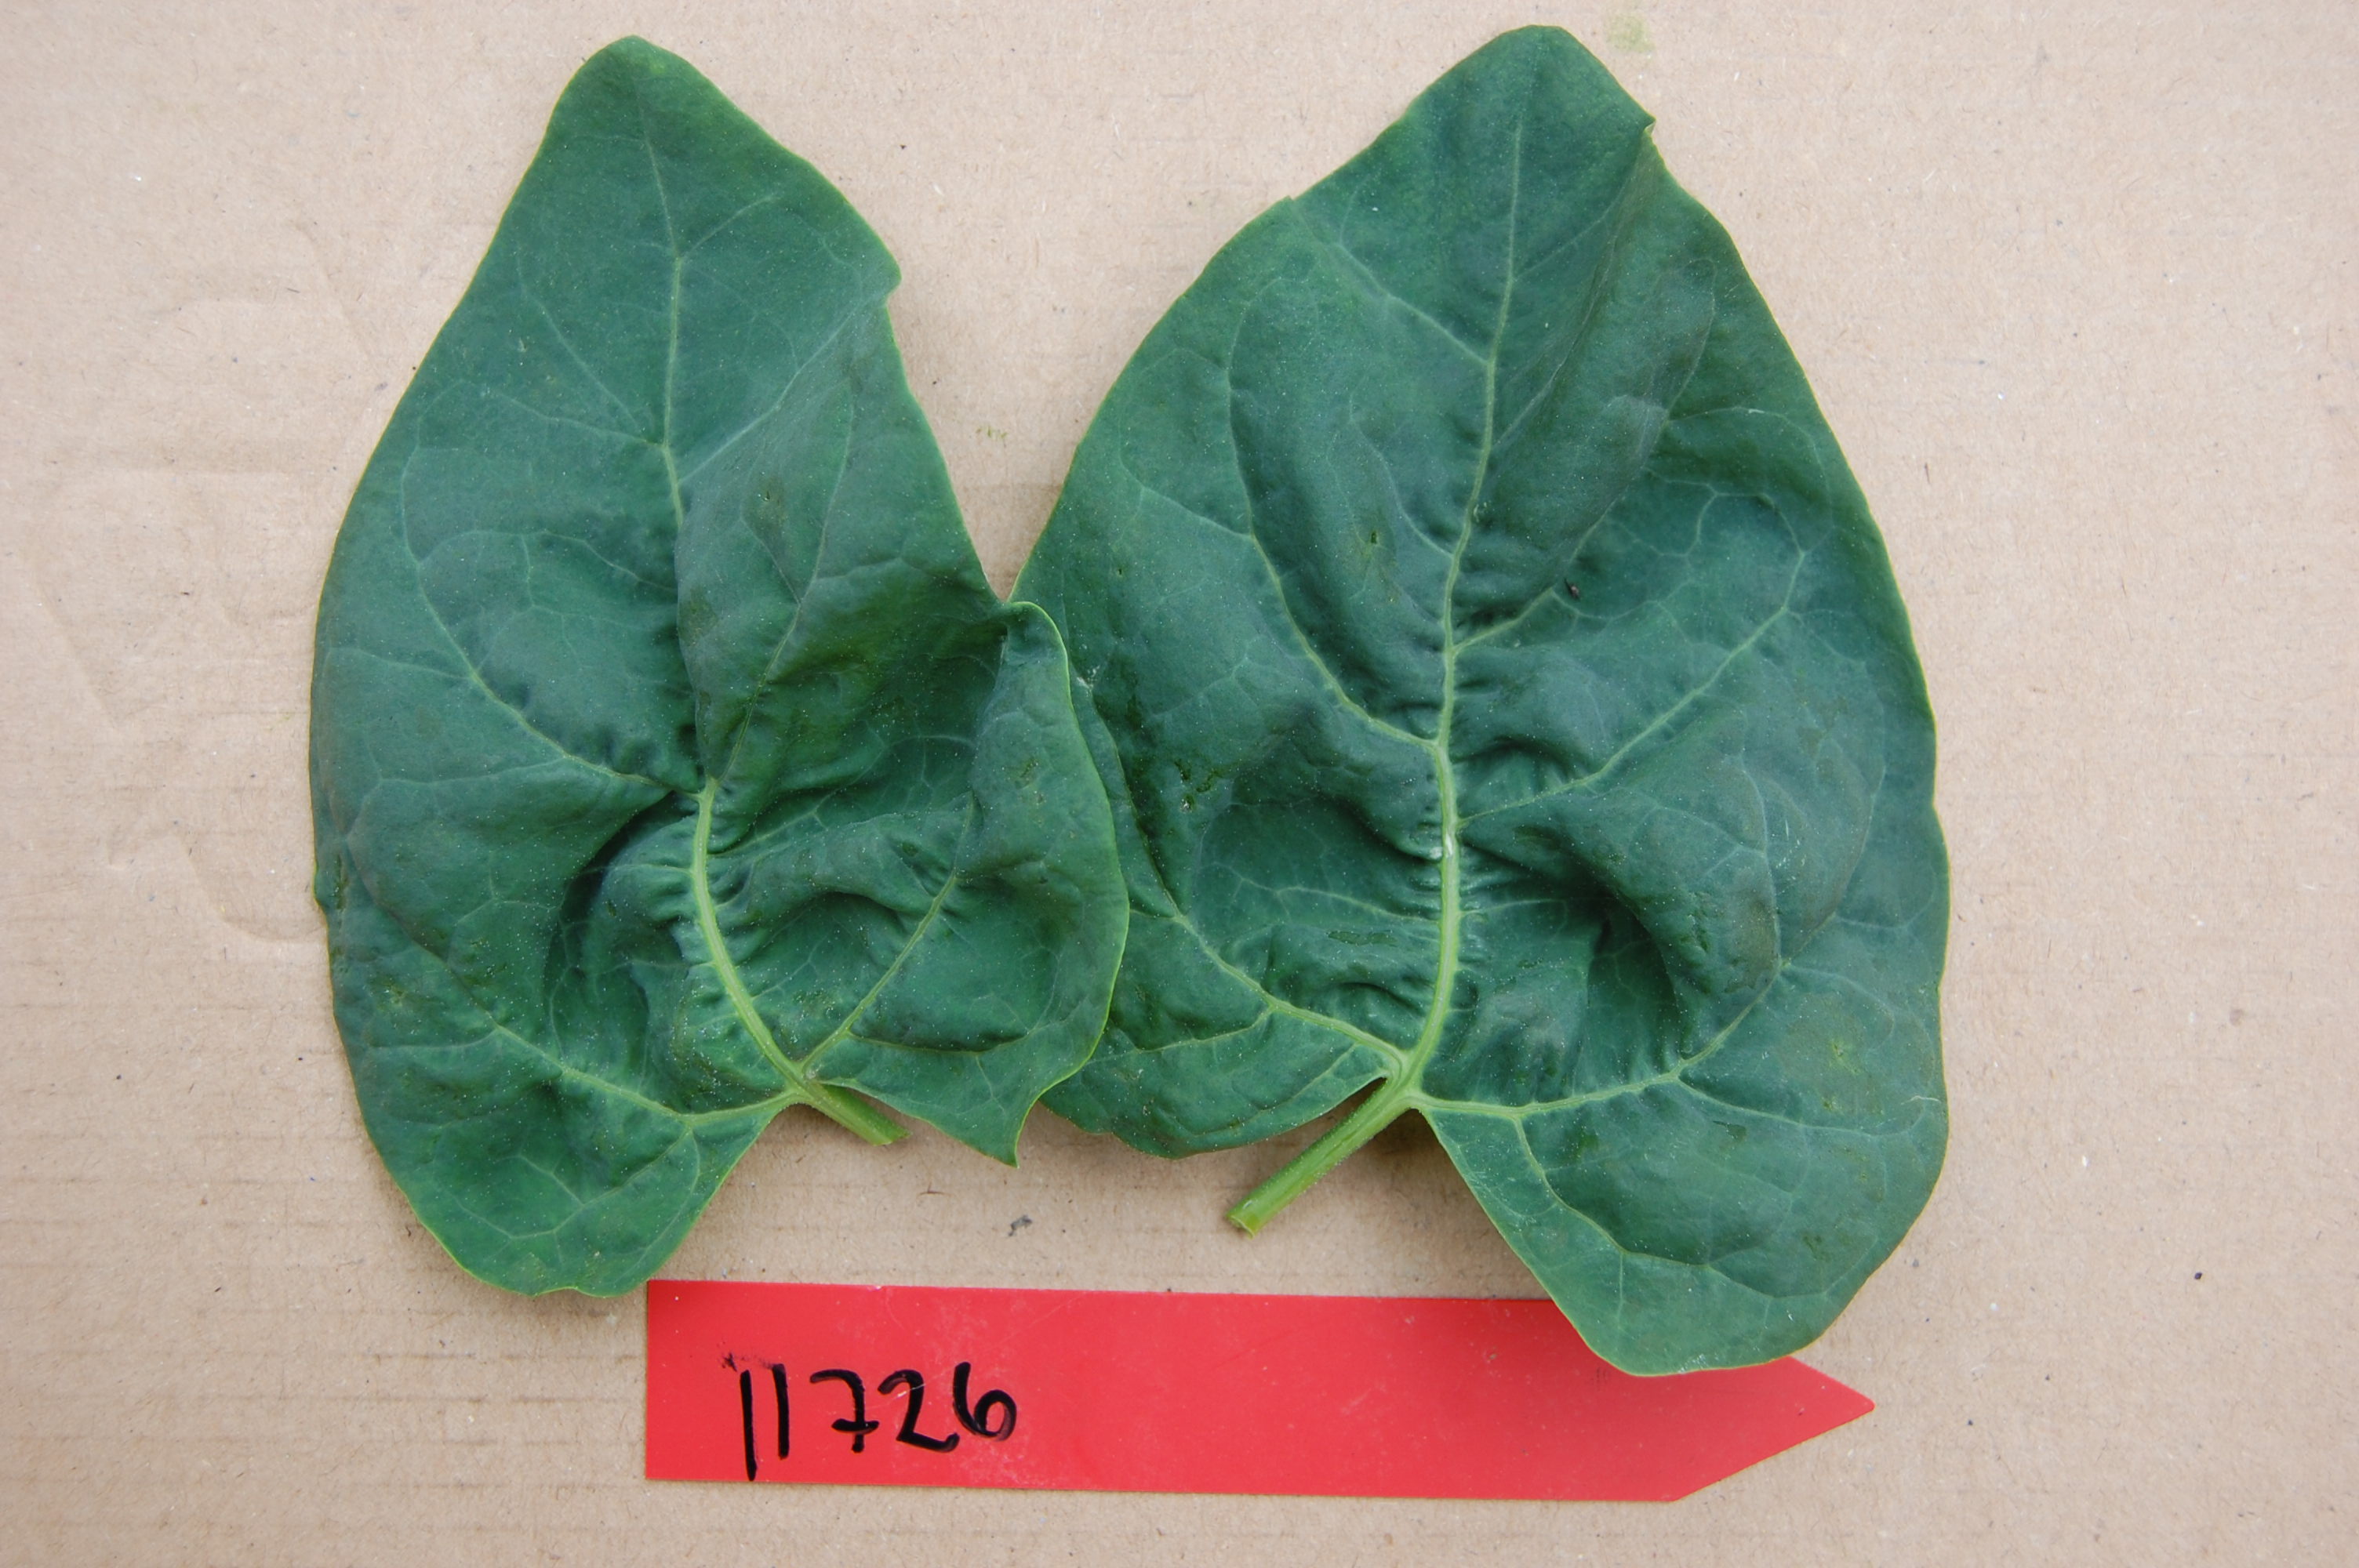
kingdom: Plantae
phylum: Tracheophyta
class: Magnoliopsida
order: Caryophyllales
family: Amaranthaceae
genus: Atriplex
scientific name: Atriplex hortensis
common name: Garden orache
